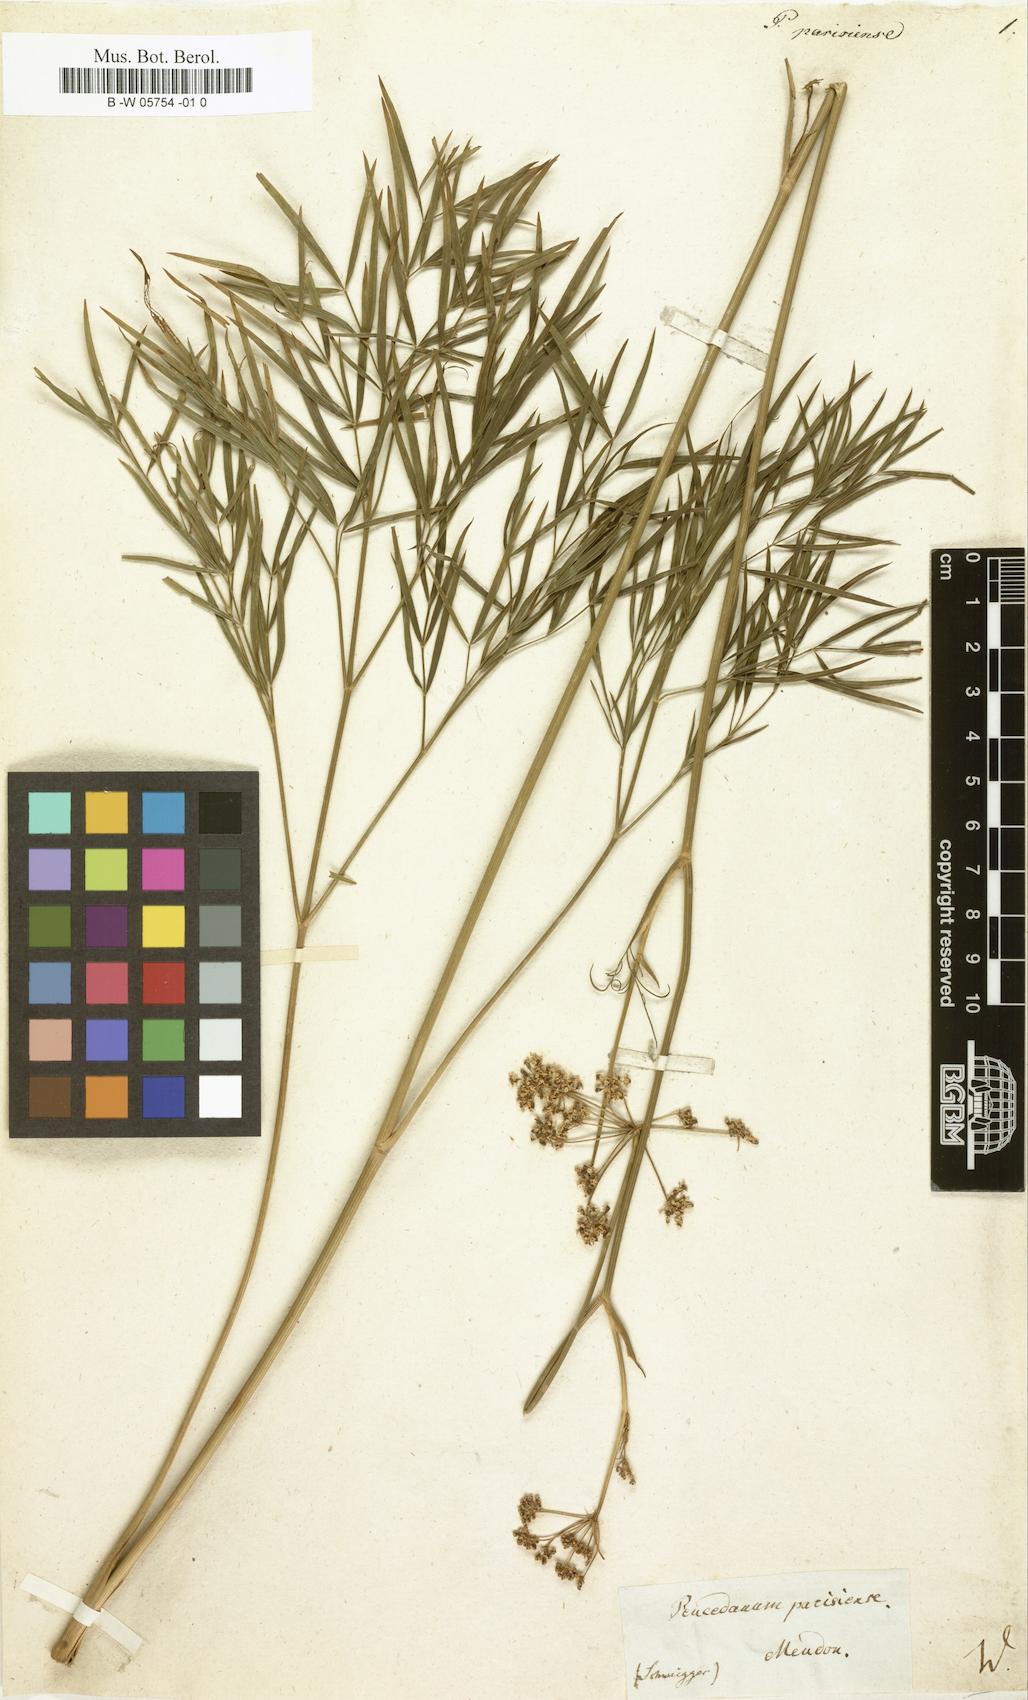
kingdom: Plantae
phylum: Tracheophyta
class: Magnoliopsida
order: Apiales
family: Apiaceae
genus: Peucedanum
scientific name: Peucedanum
